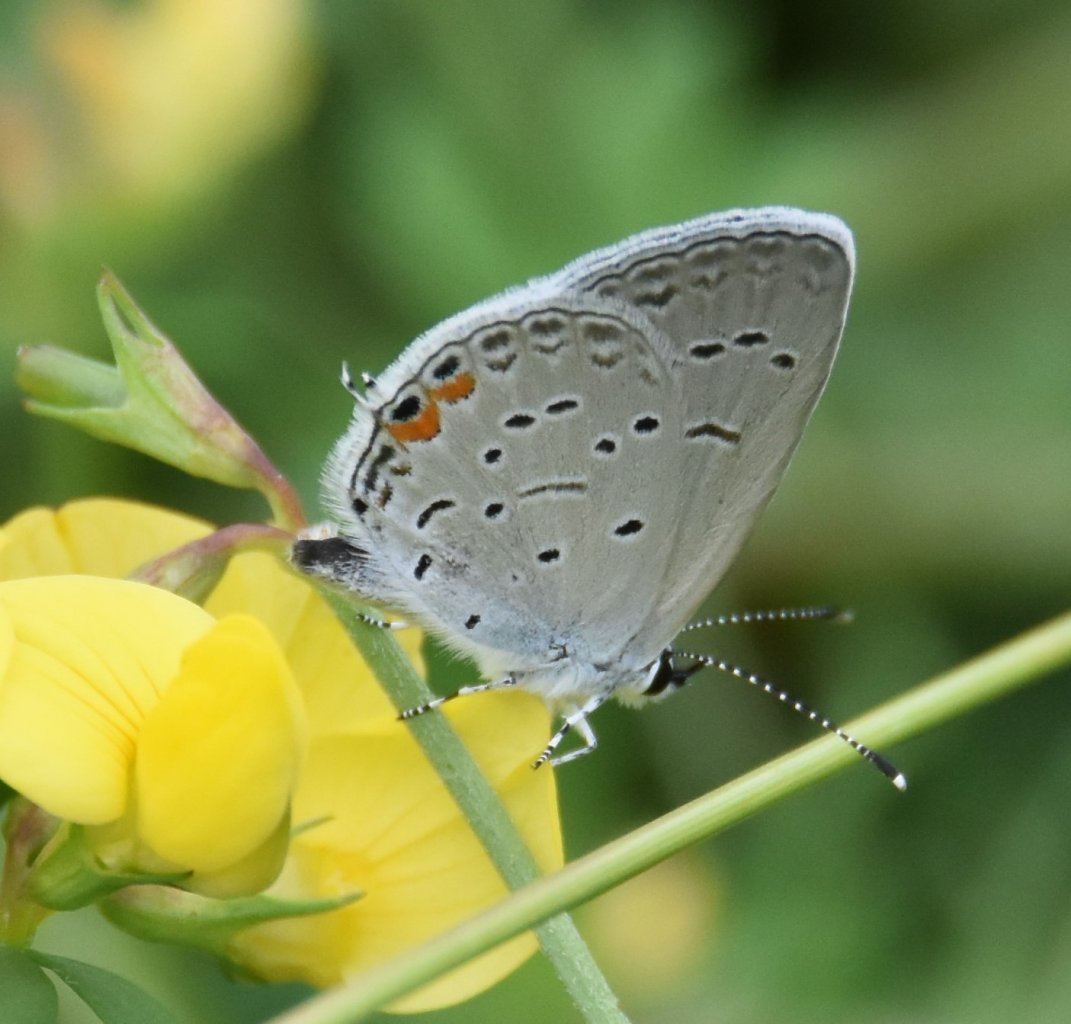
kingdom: Animalia
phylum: Arthropoda
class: Insecta
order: Lepidoptera
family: Lycaenidae
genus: Elkalyce
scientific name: Elkalyce comyntas
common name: Eastern Tailed-Blue
